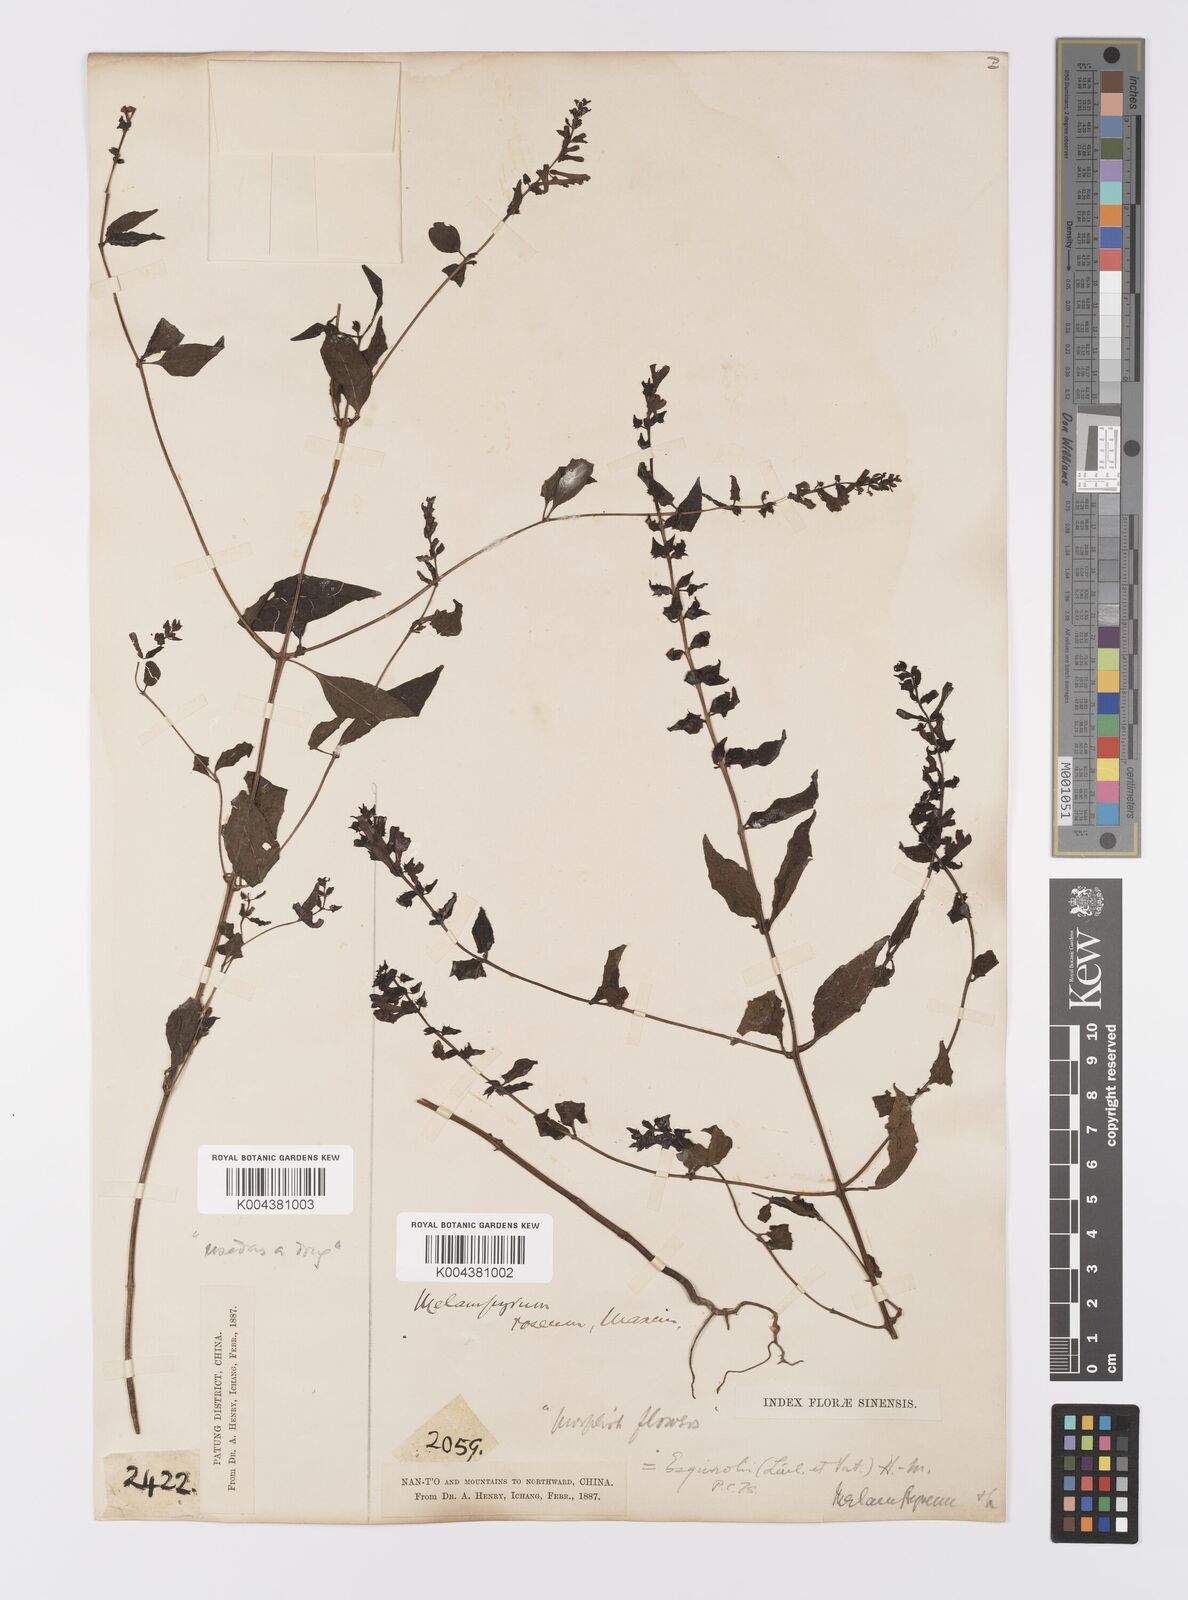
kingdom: Plantae
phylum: Tracheophyta
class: Magnoliopsida
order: Lamiales
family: Orobanchaceae
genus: Melampyrum
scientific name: Melampyrum roseum
